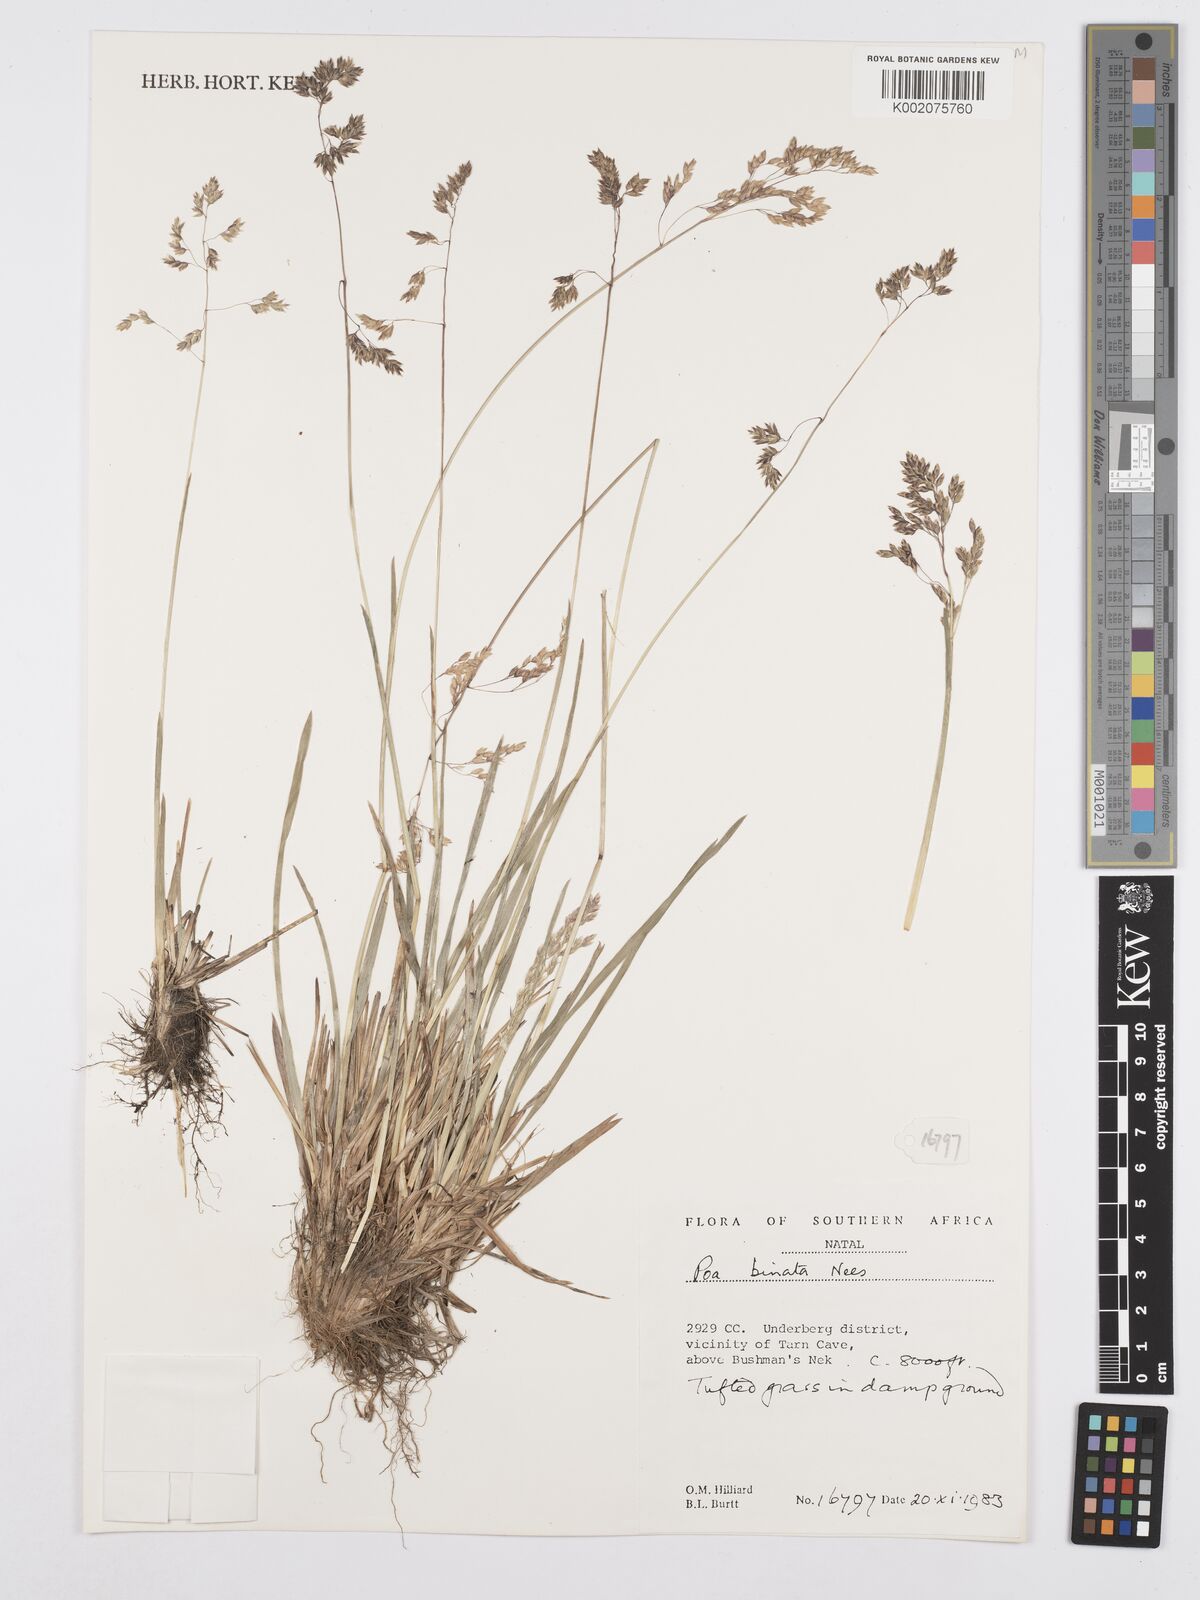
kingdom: Plantae
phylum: Tracheophyta
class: Liliopsida
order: Poales
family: Poaceae
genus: Poa
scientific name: Poa binata
